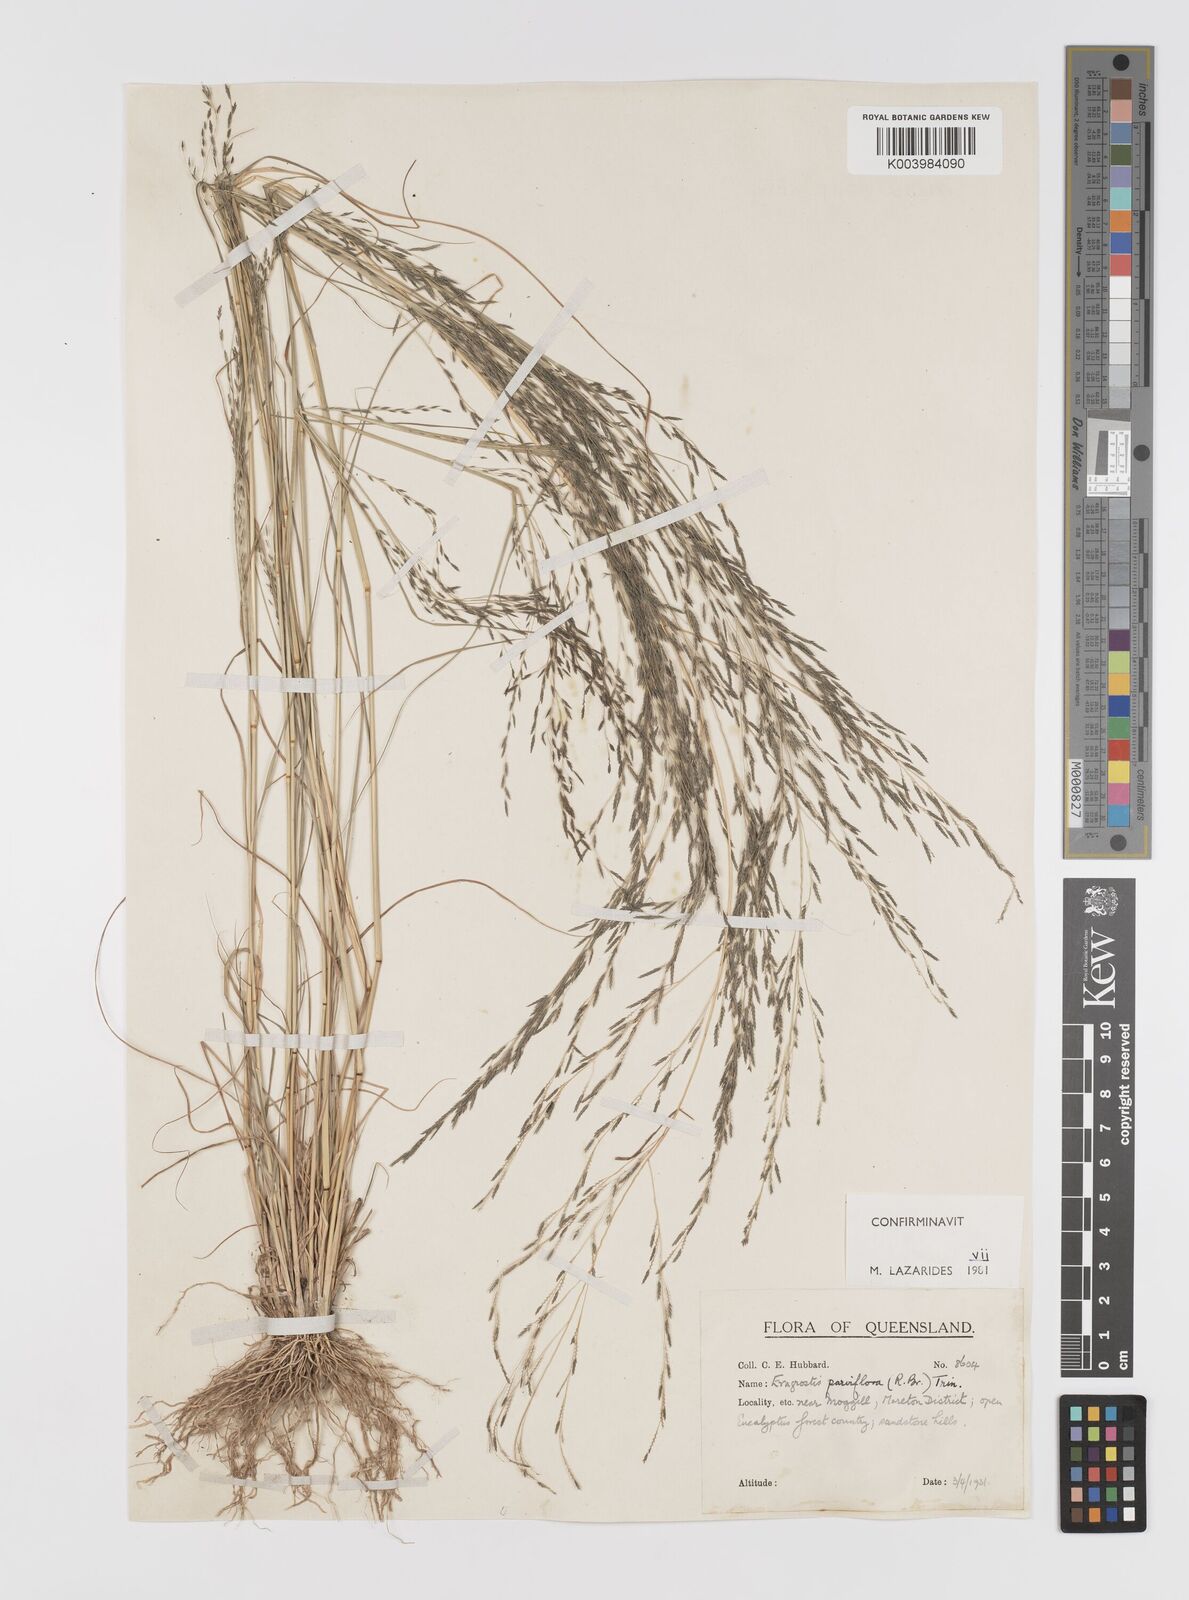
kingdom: Plantae
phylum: Tracheophyta
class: Liliopsida
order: Poales
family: Poaceae
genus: Eragrostis
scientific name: Eragrostis parviflora
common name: Weeping love-grass
